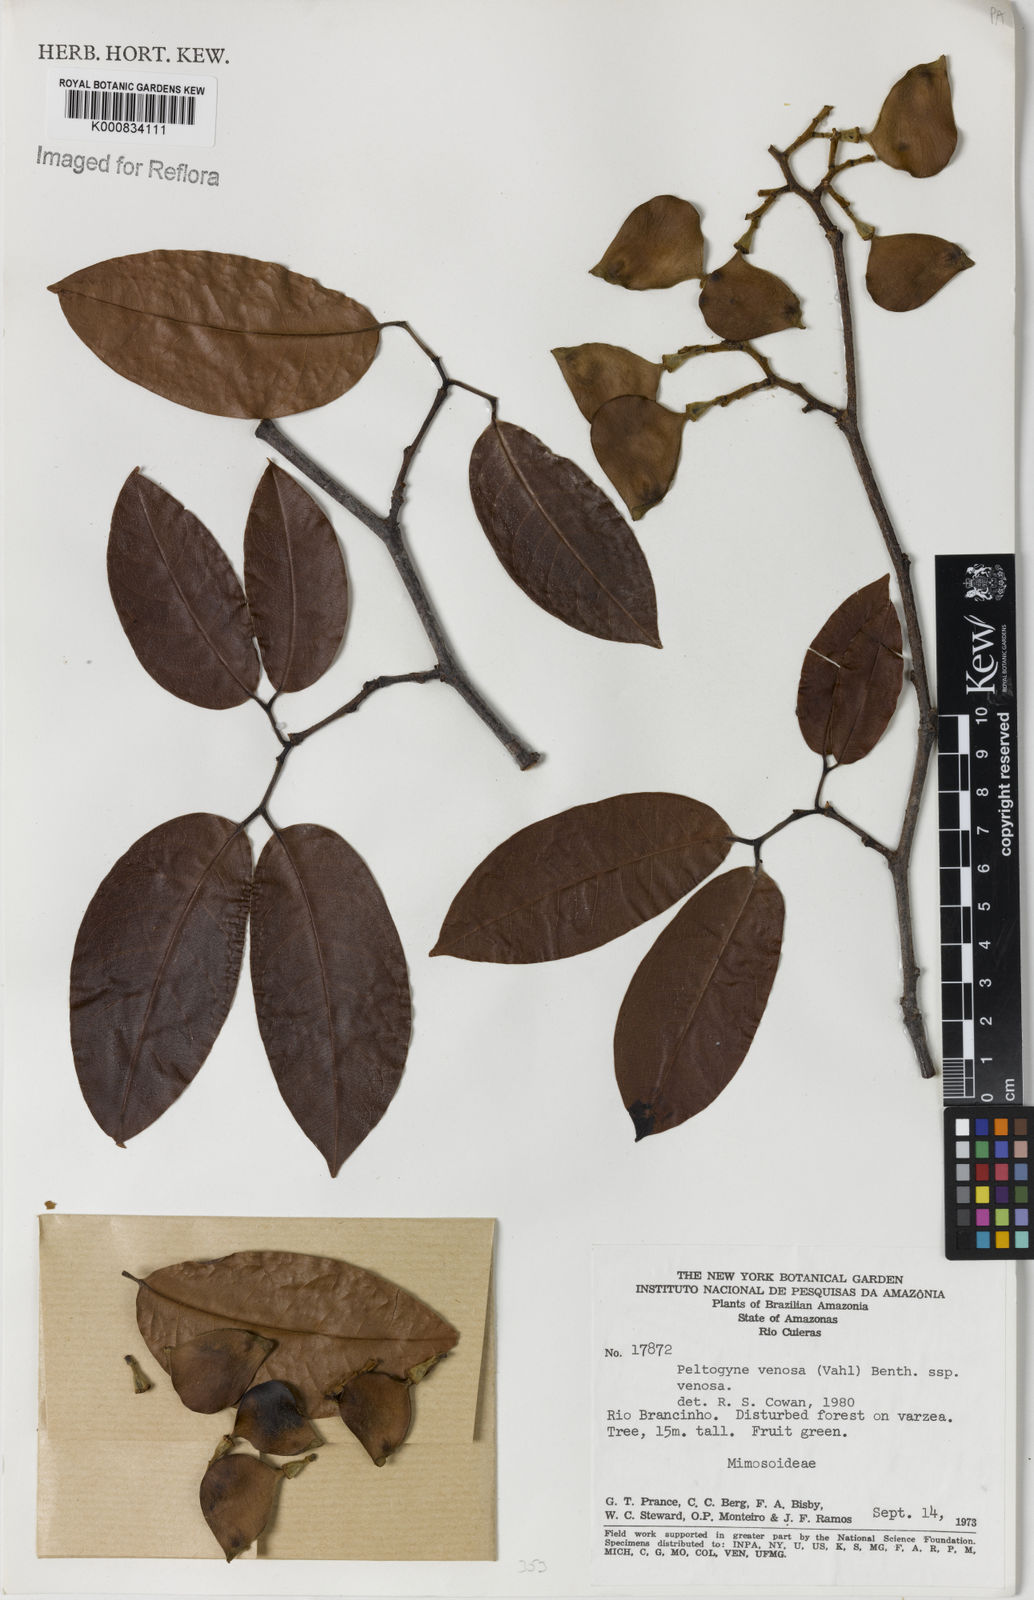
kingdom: Plantae
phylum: Tracheophyta
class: Magnoliopsida
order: Fabales
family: Fabaceae
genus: Peltogyne
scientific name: Peltogyne venosa
